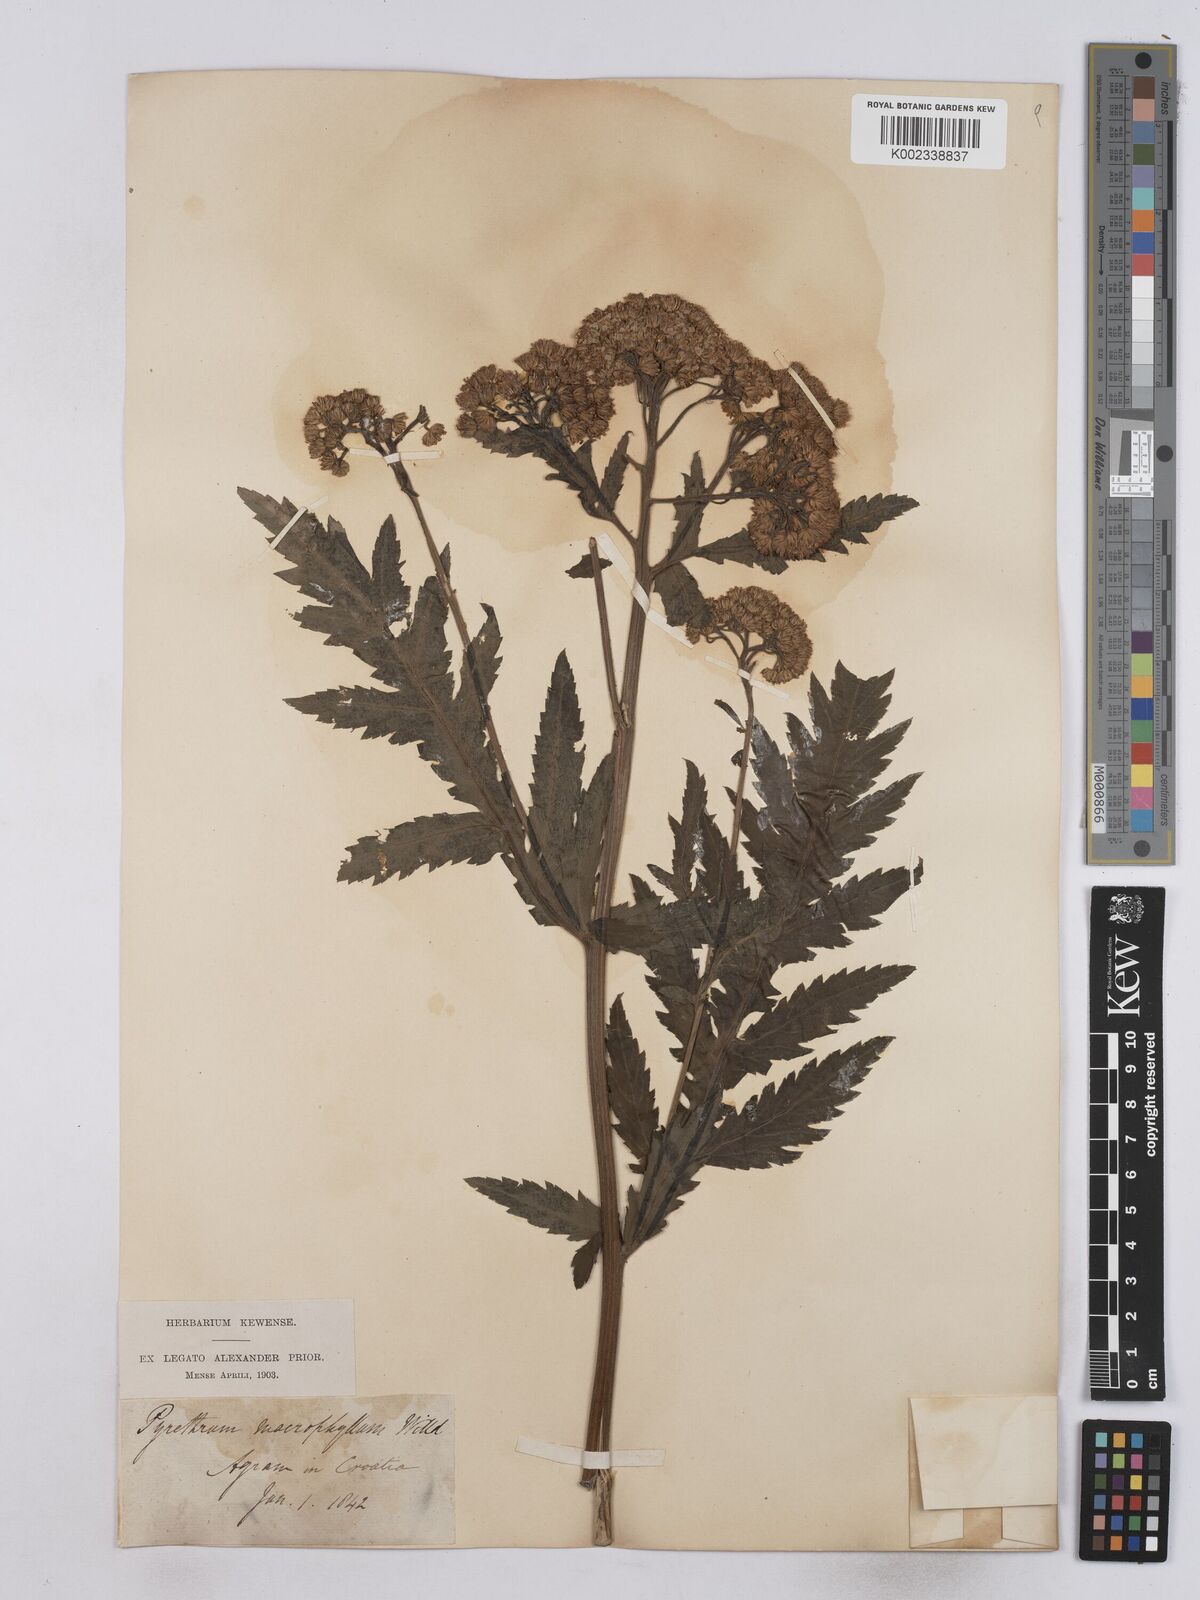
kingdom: Plantae
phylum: Tracheophyta
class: Magnoliopsida
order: Asterales
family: Asteraceae
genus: Tanacetum
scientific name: Tanacetum macrophyllum
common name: Rayed tansy
